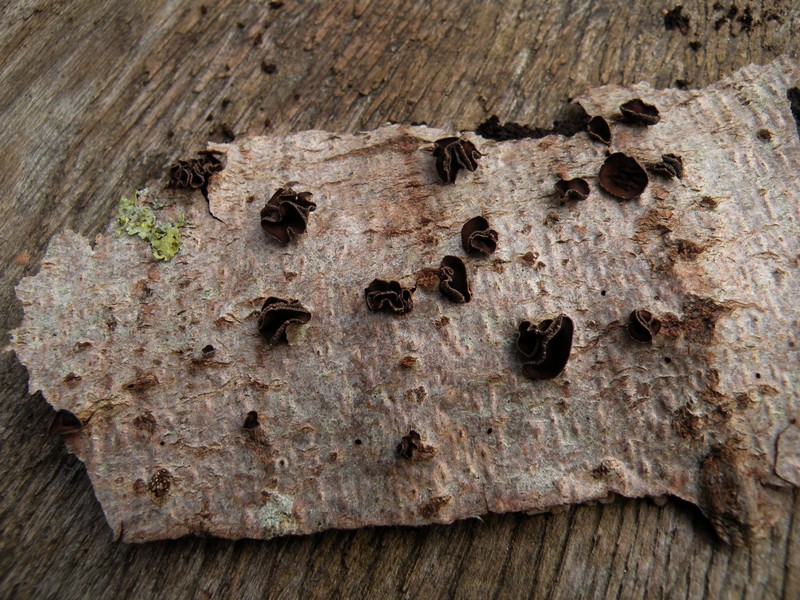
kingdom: Fungi
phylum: Ascomycota
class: Leotiomycetes
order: Helotiales
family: Sclerotiniaceae
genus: Sclerencoelia
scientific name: Sclerencoelia fascicularis
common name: poppel-læderskive
